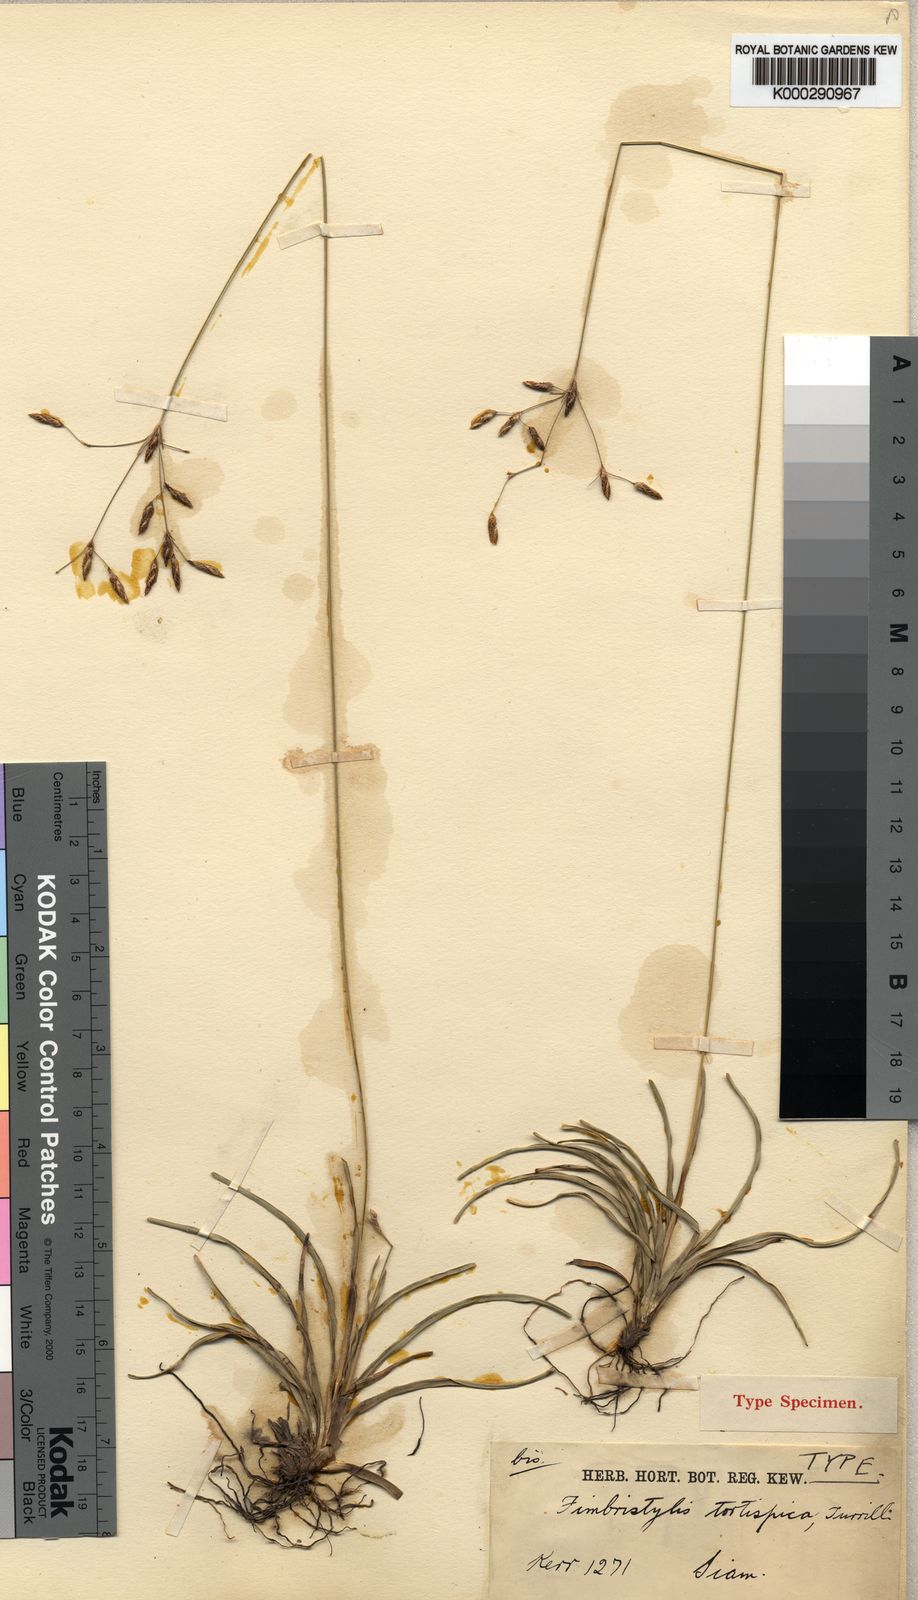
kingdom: Plantae
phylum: Tracheophyta
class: Liliopsida
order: Poales
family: Cyperaceae
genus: Fimbristylis
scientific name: Fimbristylis eragrostis
